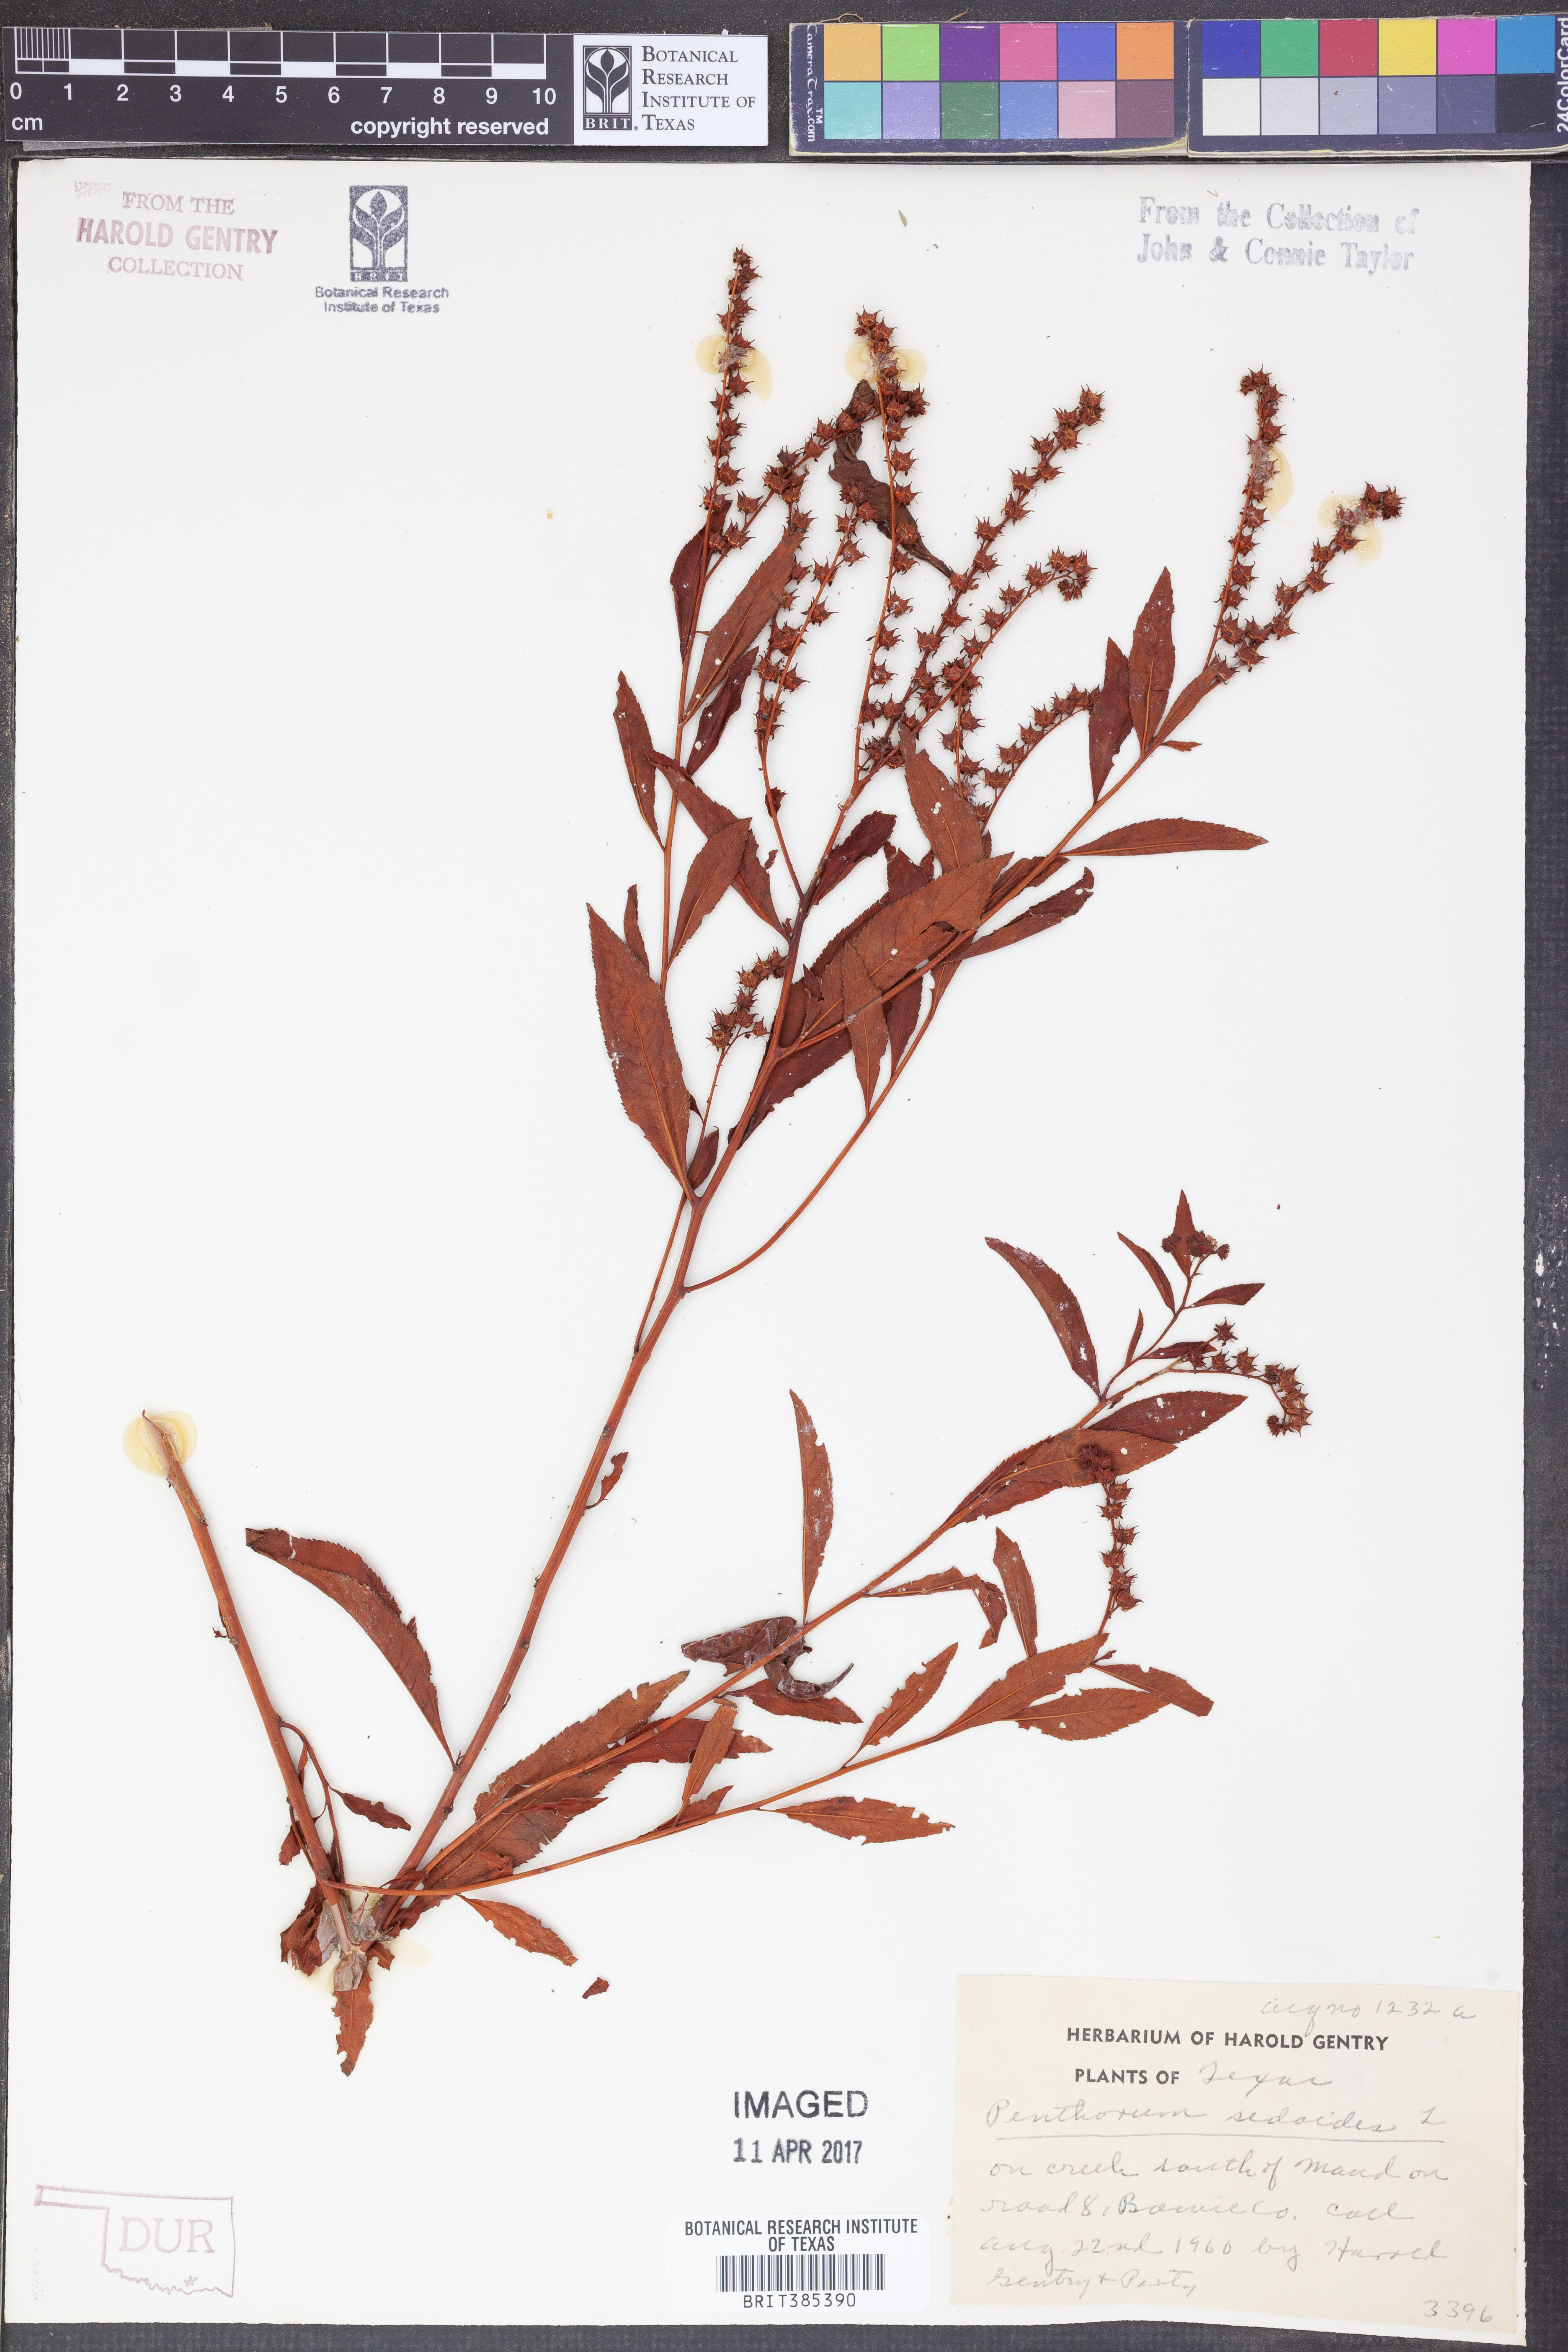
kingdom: Plantae
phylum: Tracheophyta
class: Magnoliopsida
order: Saxifragales
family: Penthoraceae
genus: Penthorum
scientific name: Penthorum sedoides
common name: Ditch stonecrop
